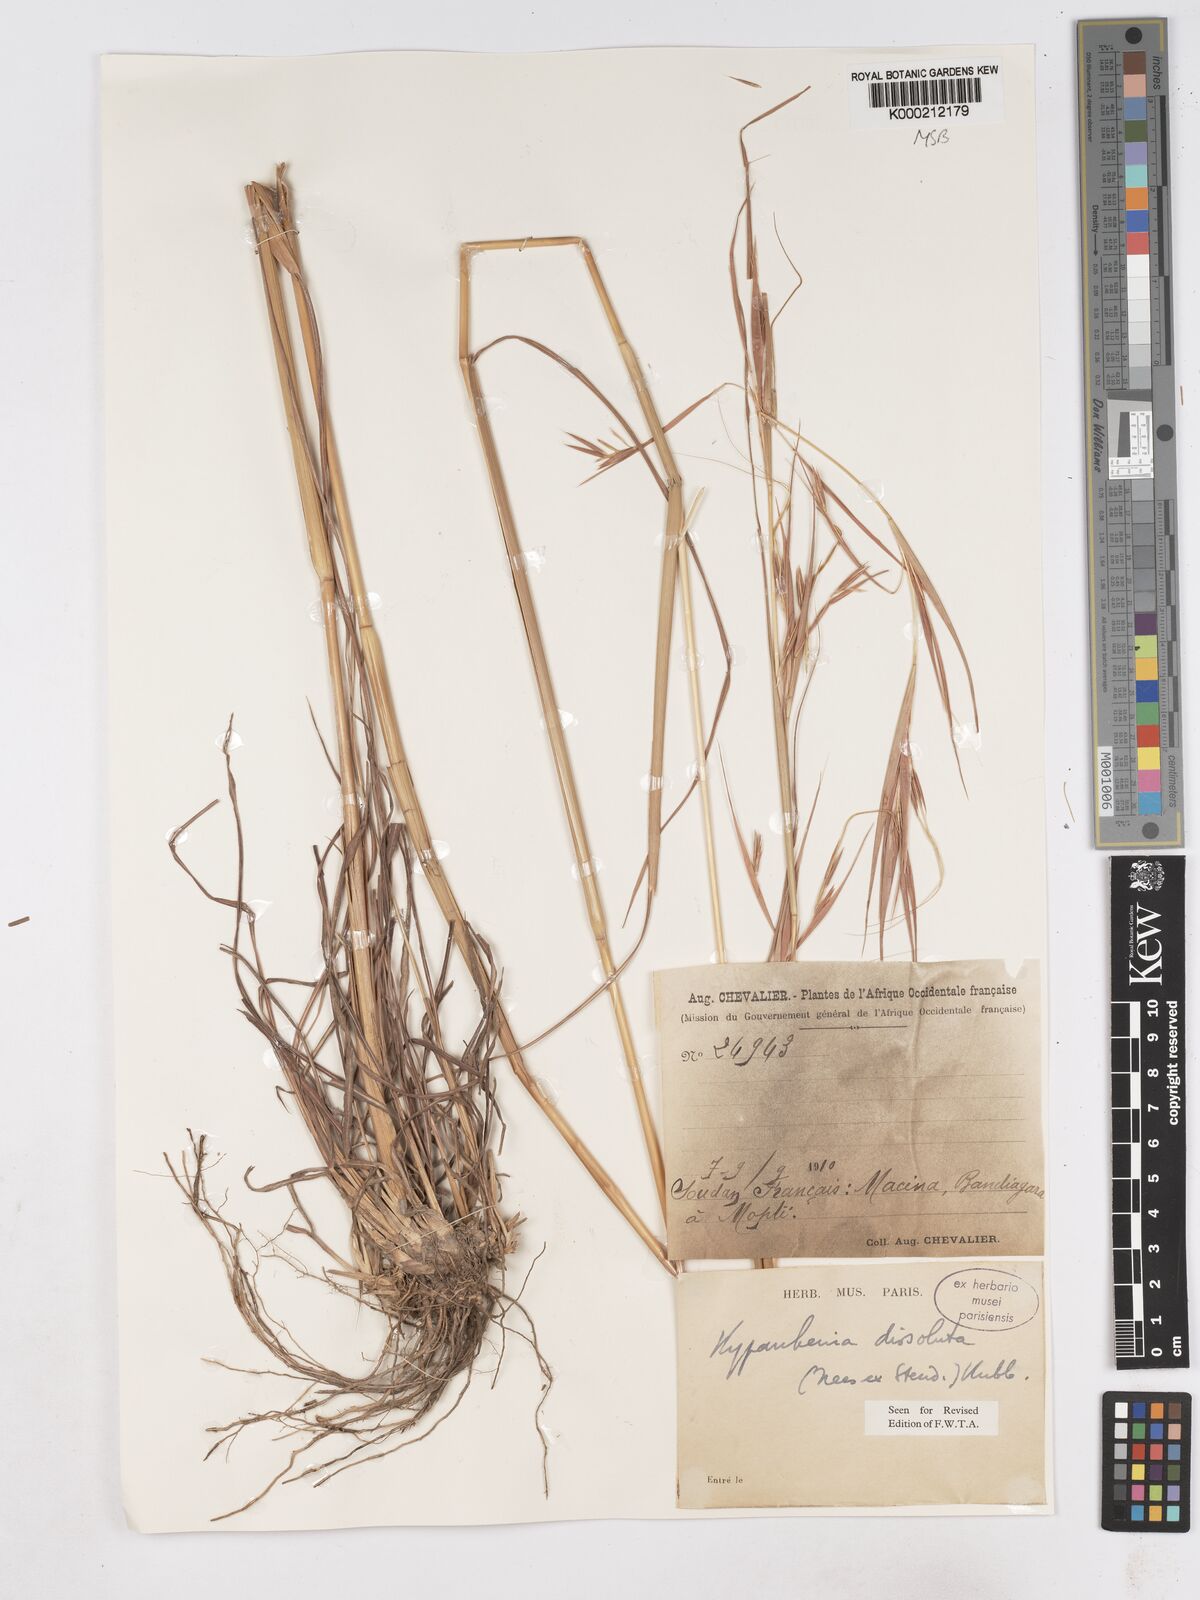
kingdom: Plantae
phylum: Tracheophyta
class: Liliopsida
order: Poales
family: Poaceae
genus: Hyperthelia
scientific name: Hyperthelia dissoluta
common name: Yellow thatching grass
